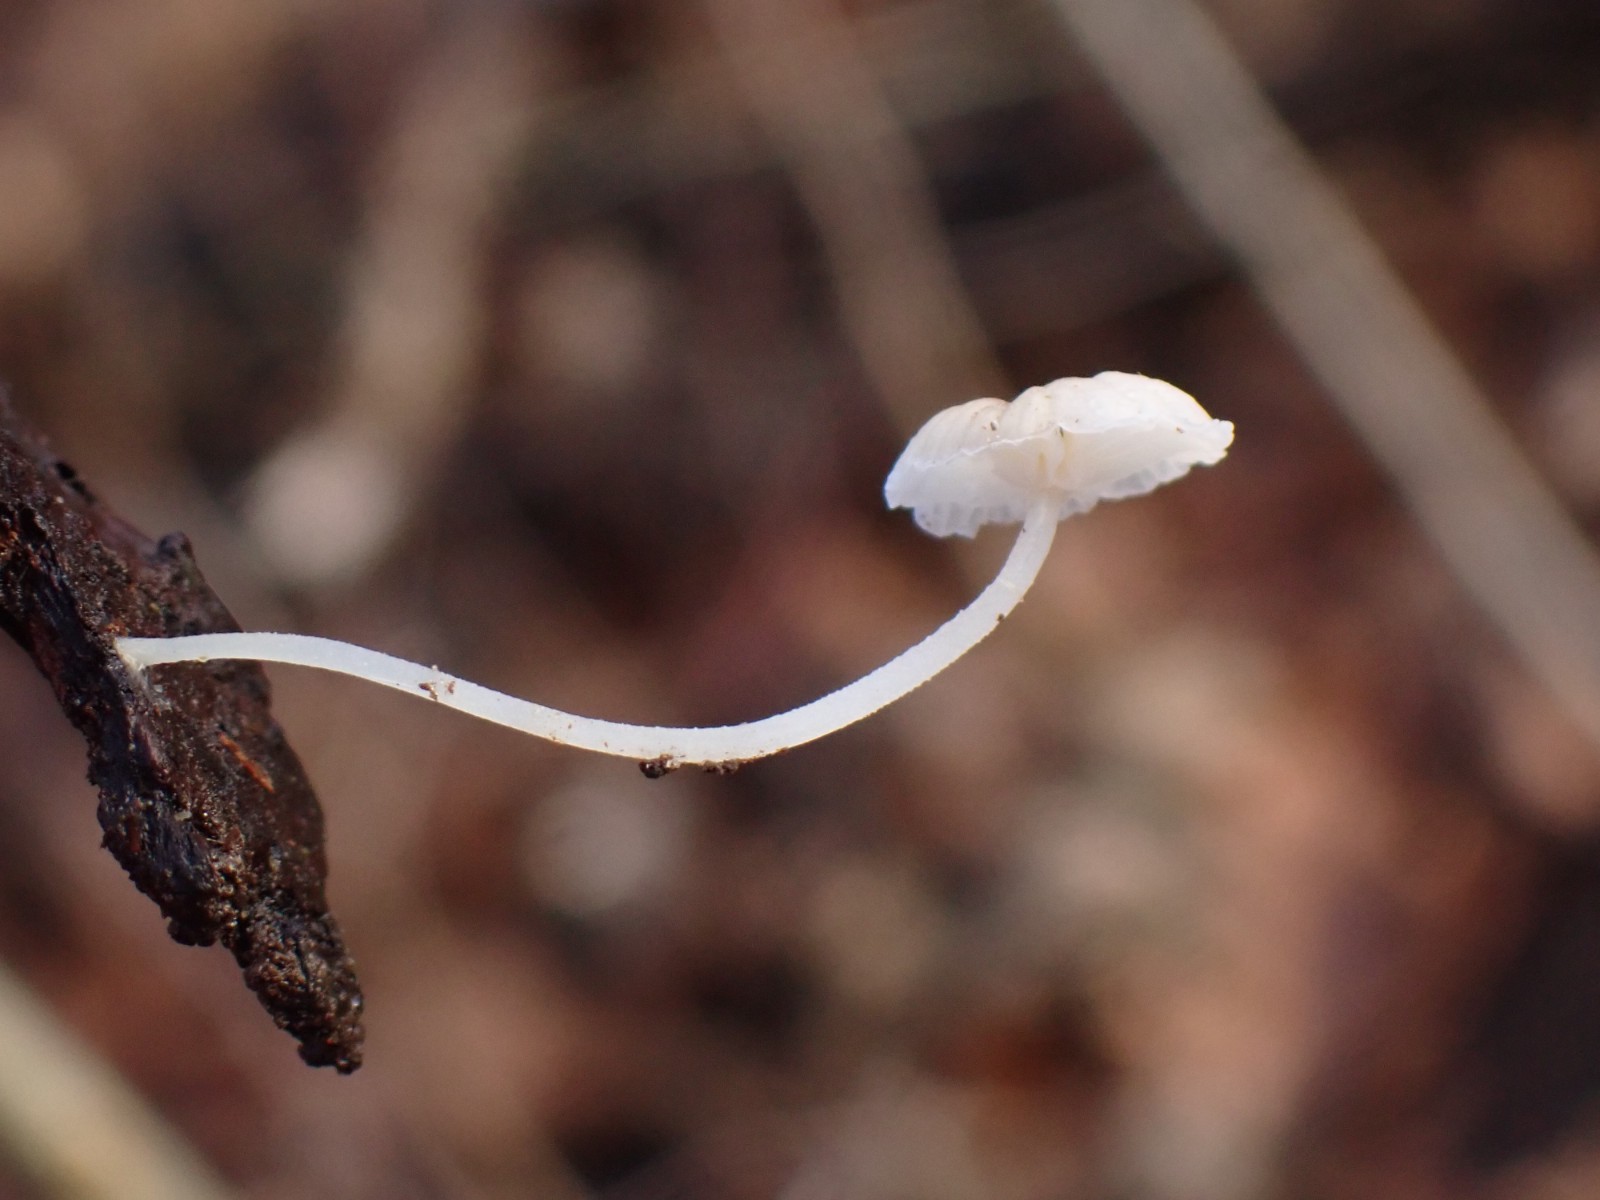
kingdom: Fungi
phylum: Basidiomycota
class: Agaricomycetes
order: Agaricales
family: Porotheleaceae
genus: Phloeomana
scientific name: Phloeomana speirea
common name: kvist-huesvamp
